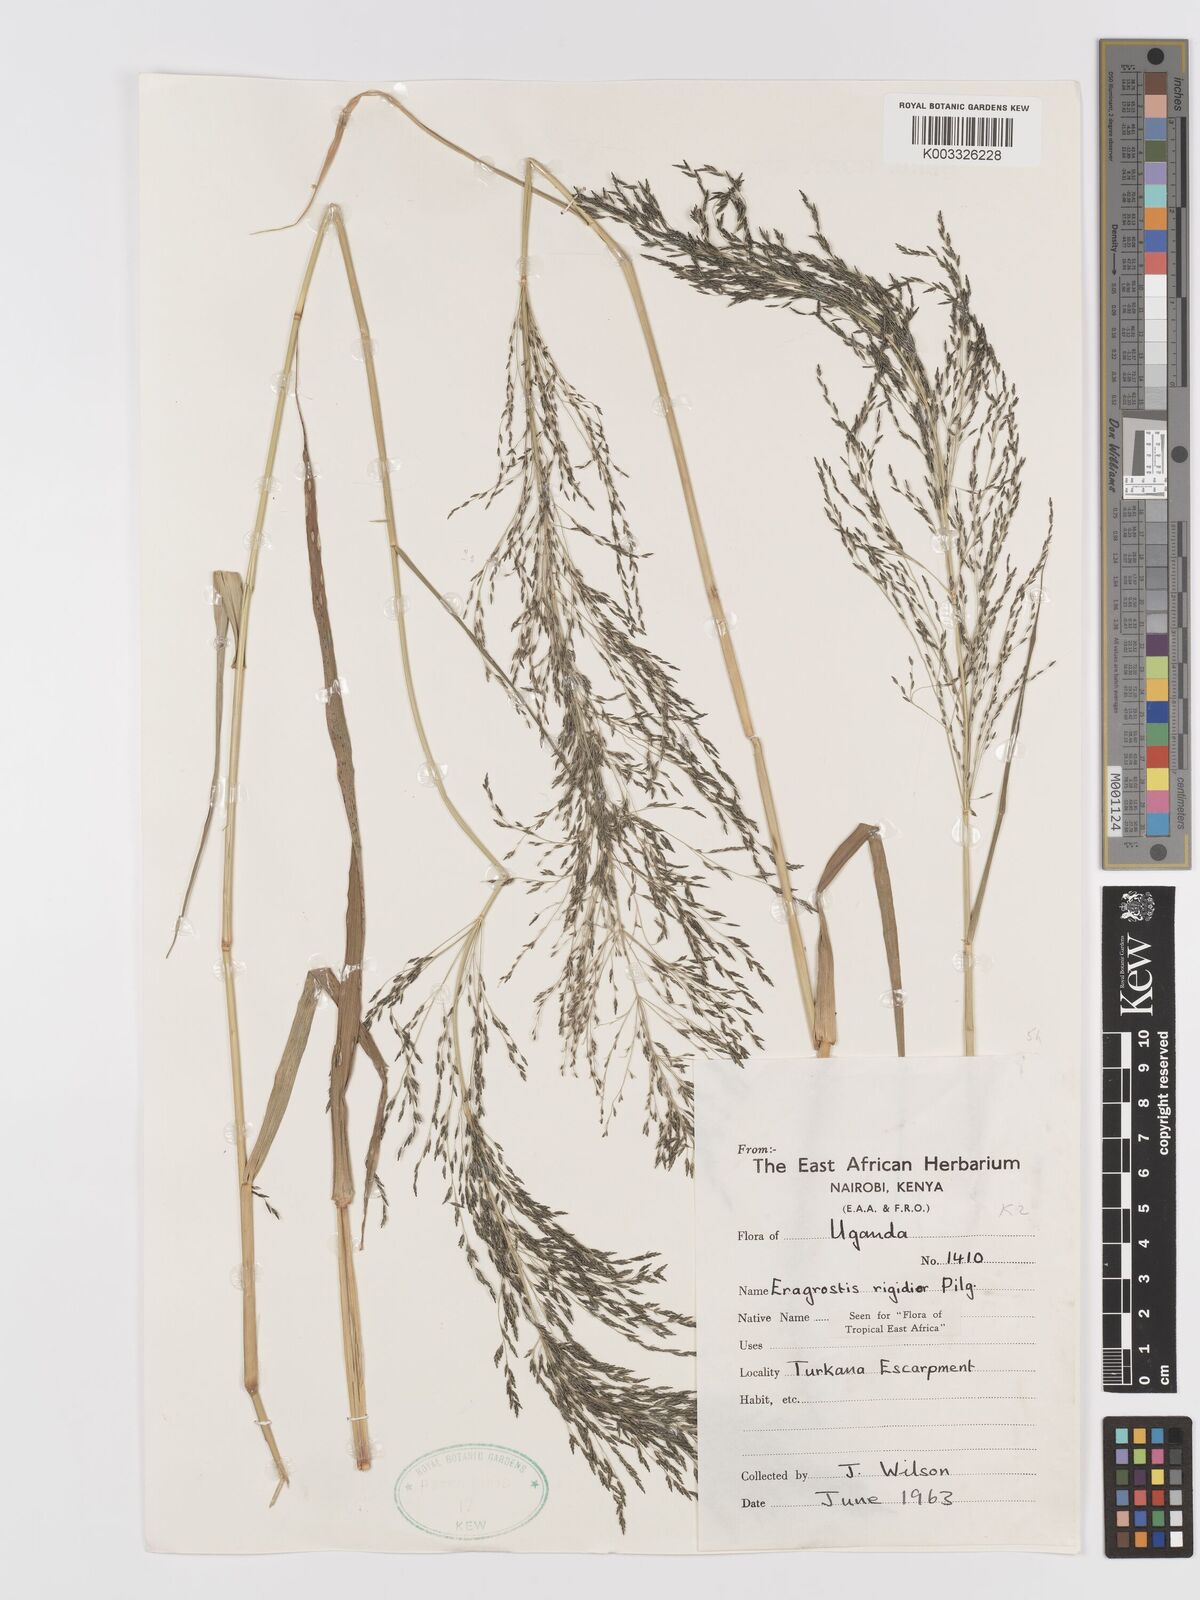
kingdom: Plantae
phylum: Tracheophyta
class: Liliopsida
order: Poales
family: Poaceae
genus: Eragrostis
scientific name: Eragrostis cylindriflora
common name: Cylinderflower lovegrass
